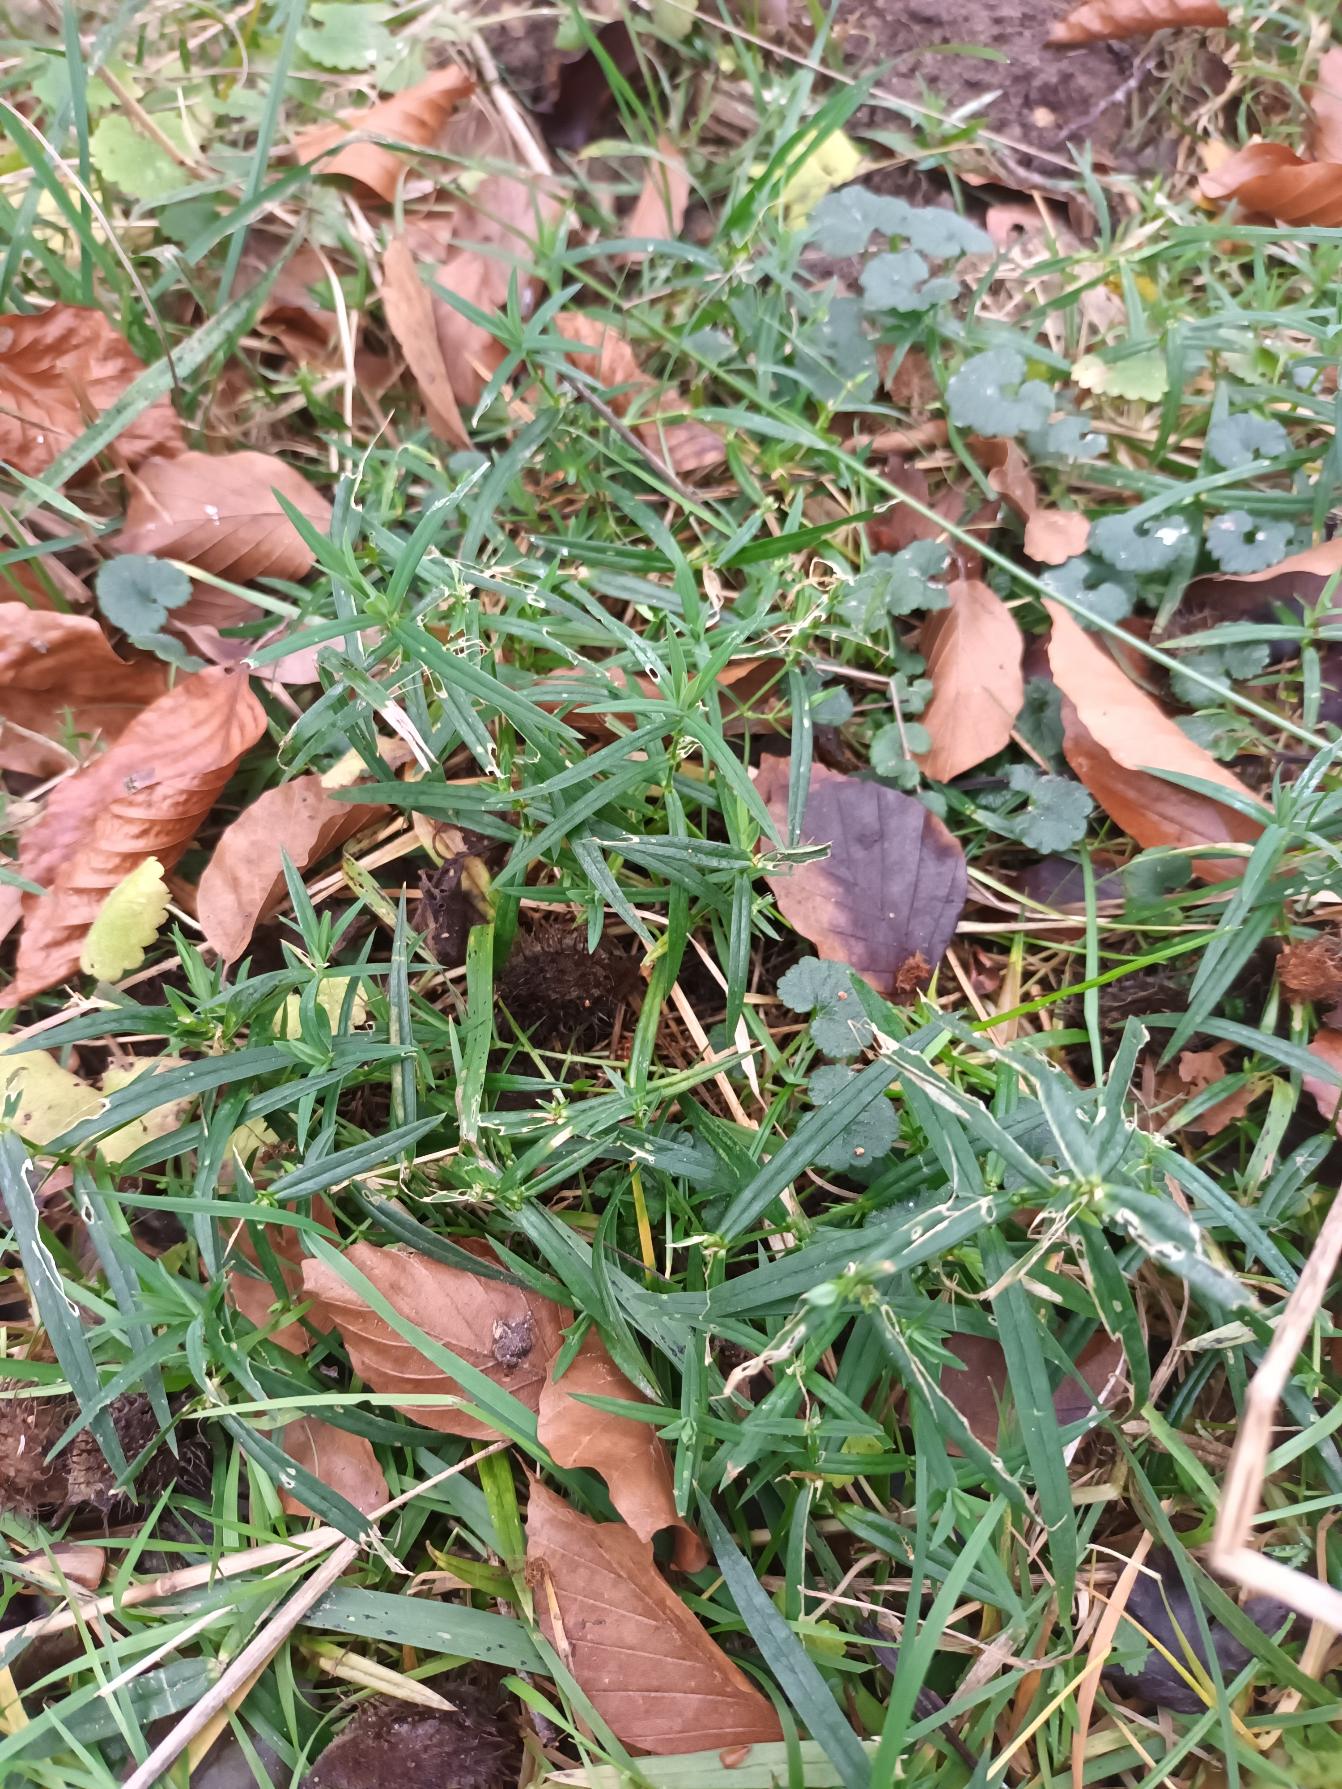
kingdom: Plantae
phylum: Tracheophyta
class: Magnoliopsida
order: Caryophyllales
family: Caryophyllaceae
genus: Rabelera
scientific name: Rabelera holostea
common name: Stor fladstjerne
